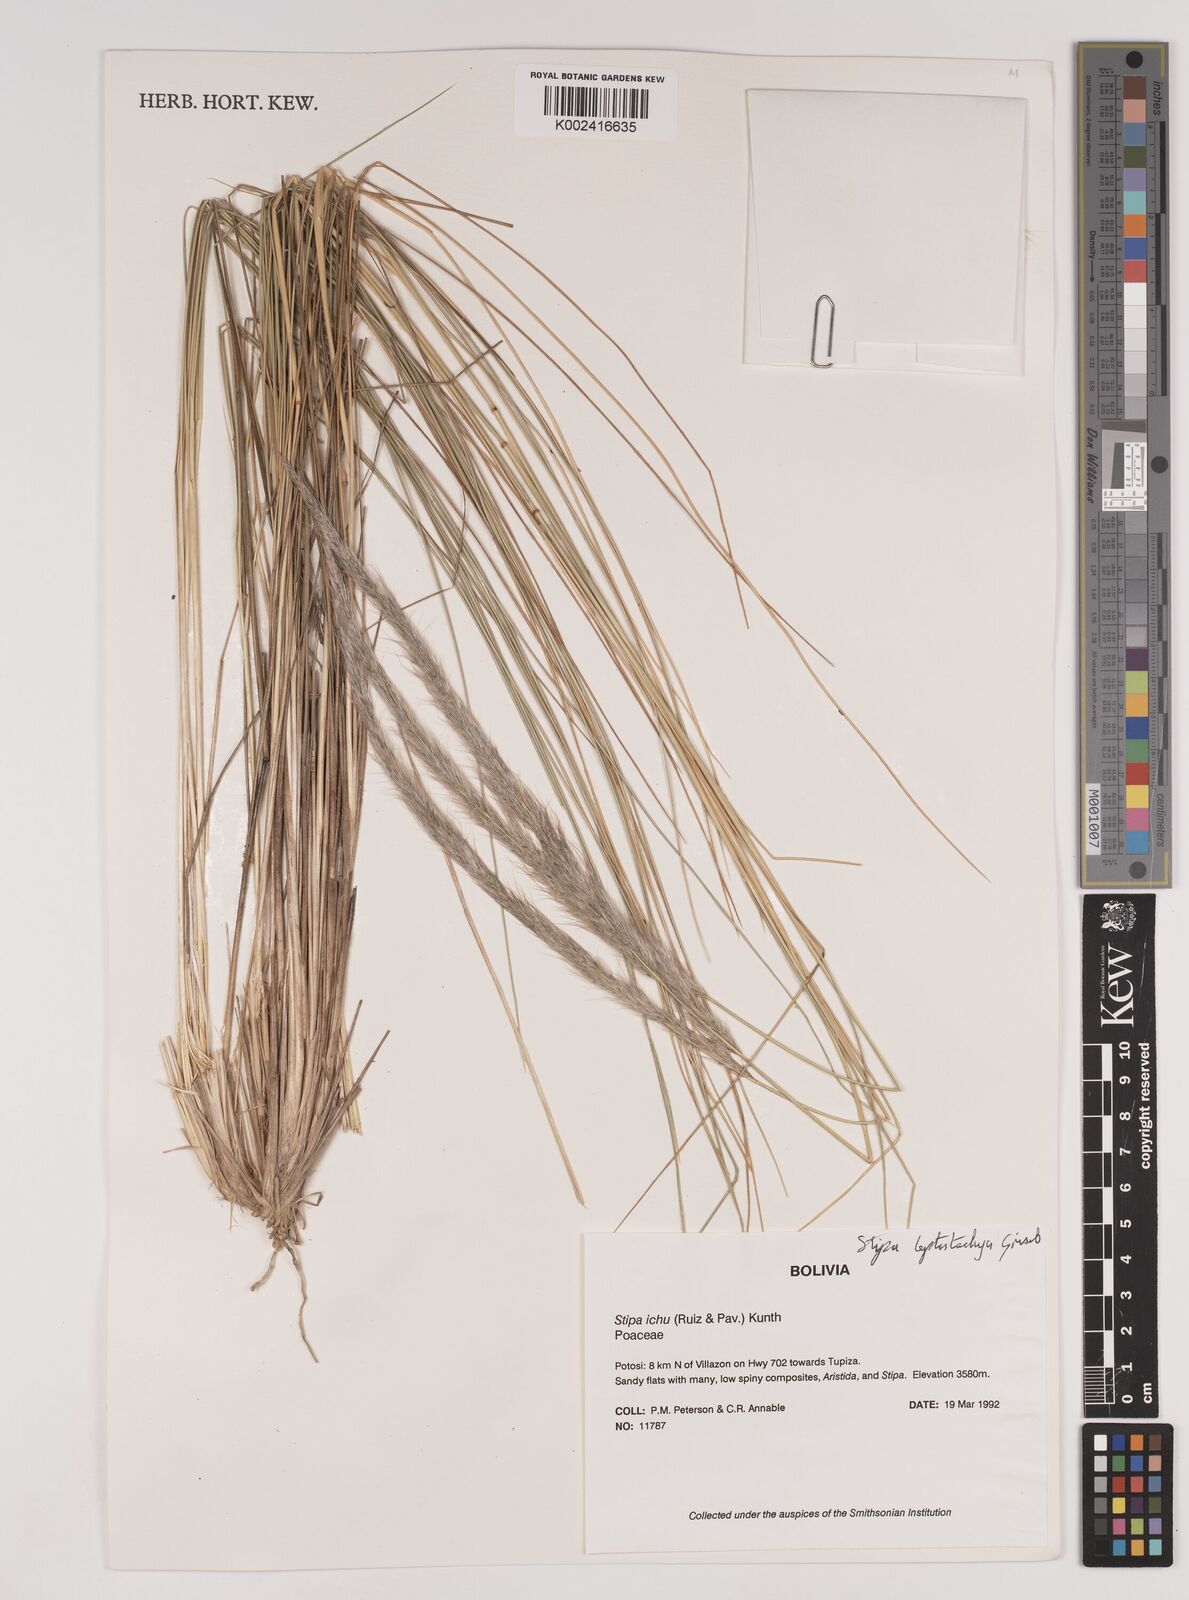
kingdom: Plantae
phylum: Tracheophyta
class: Liliopsida
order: Poales
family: Poaceae
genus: Jarava
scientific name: Jarava leptostachya
